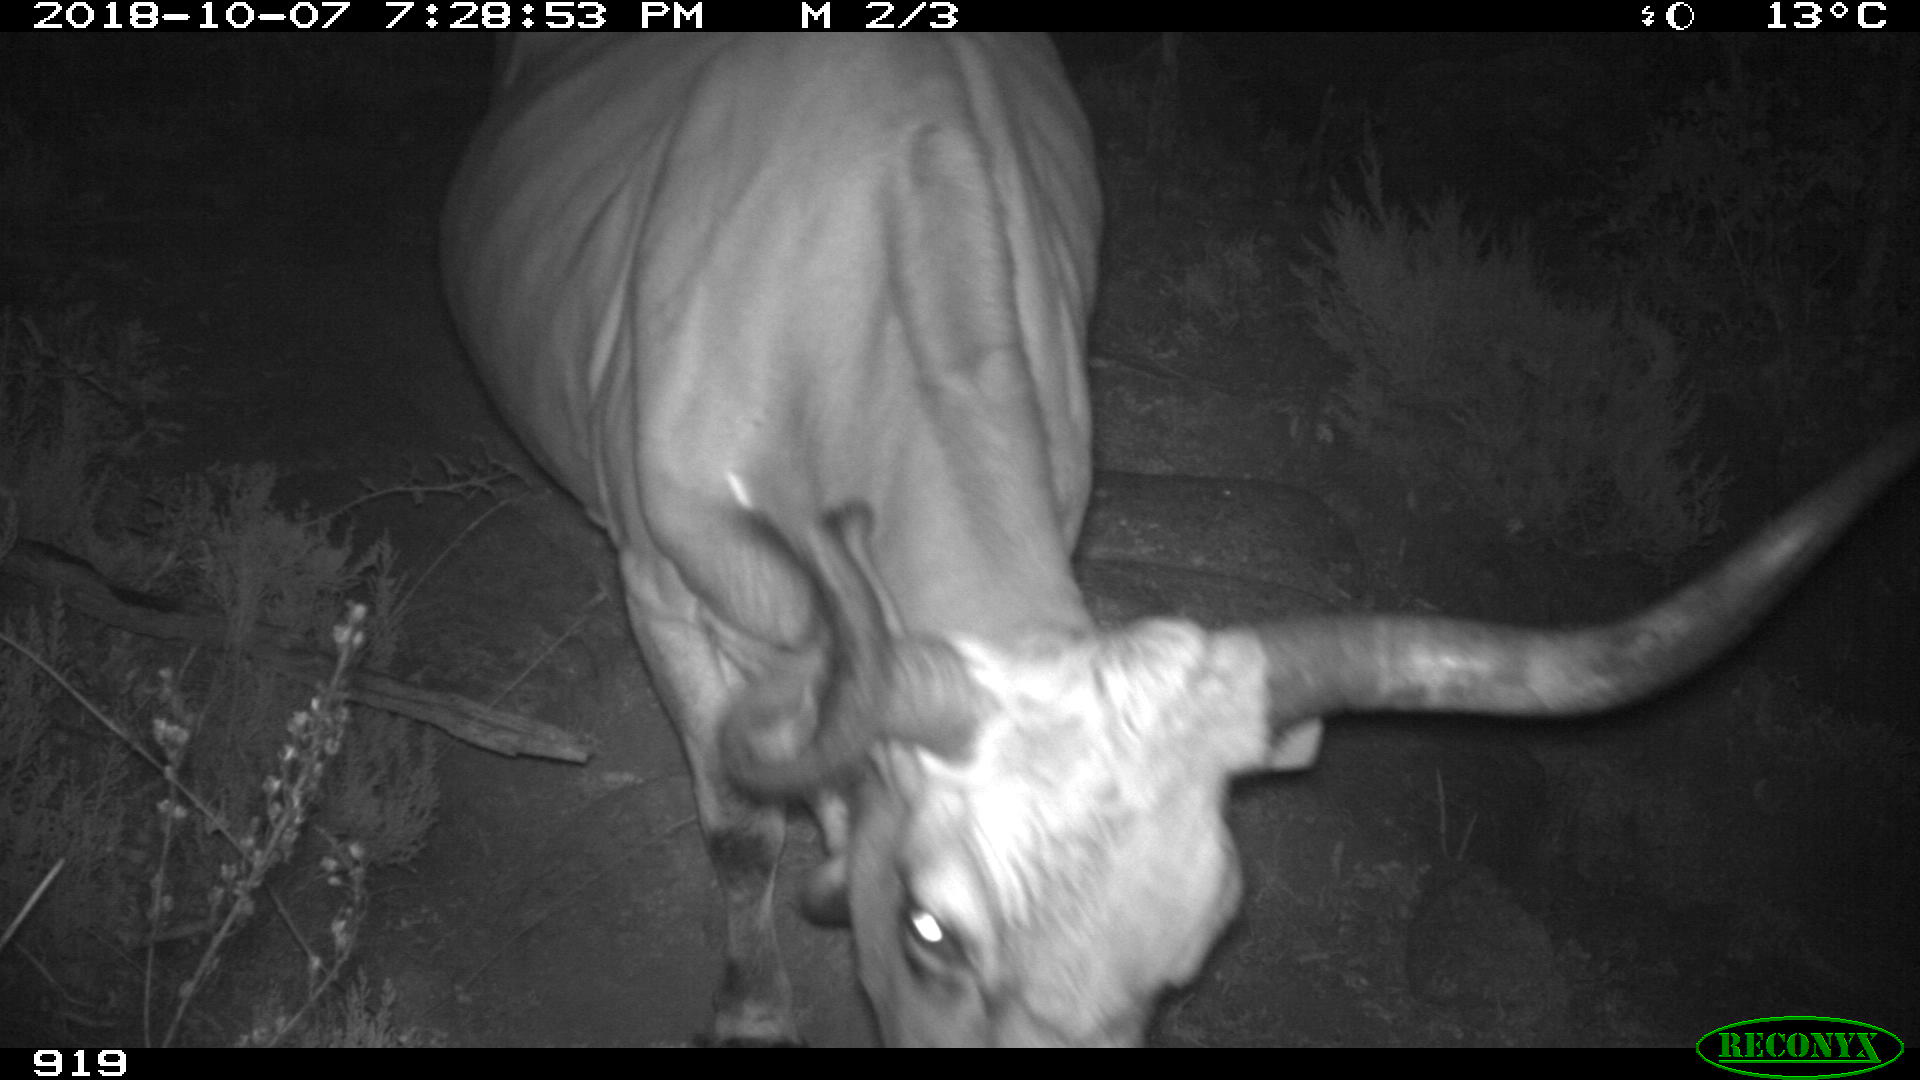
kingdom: Animalia
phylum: Chordata
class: Mammalia
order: Artiodactyla
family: Bovidae
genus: Bos
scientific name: Bos taurus
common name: Domesticated cattle
